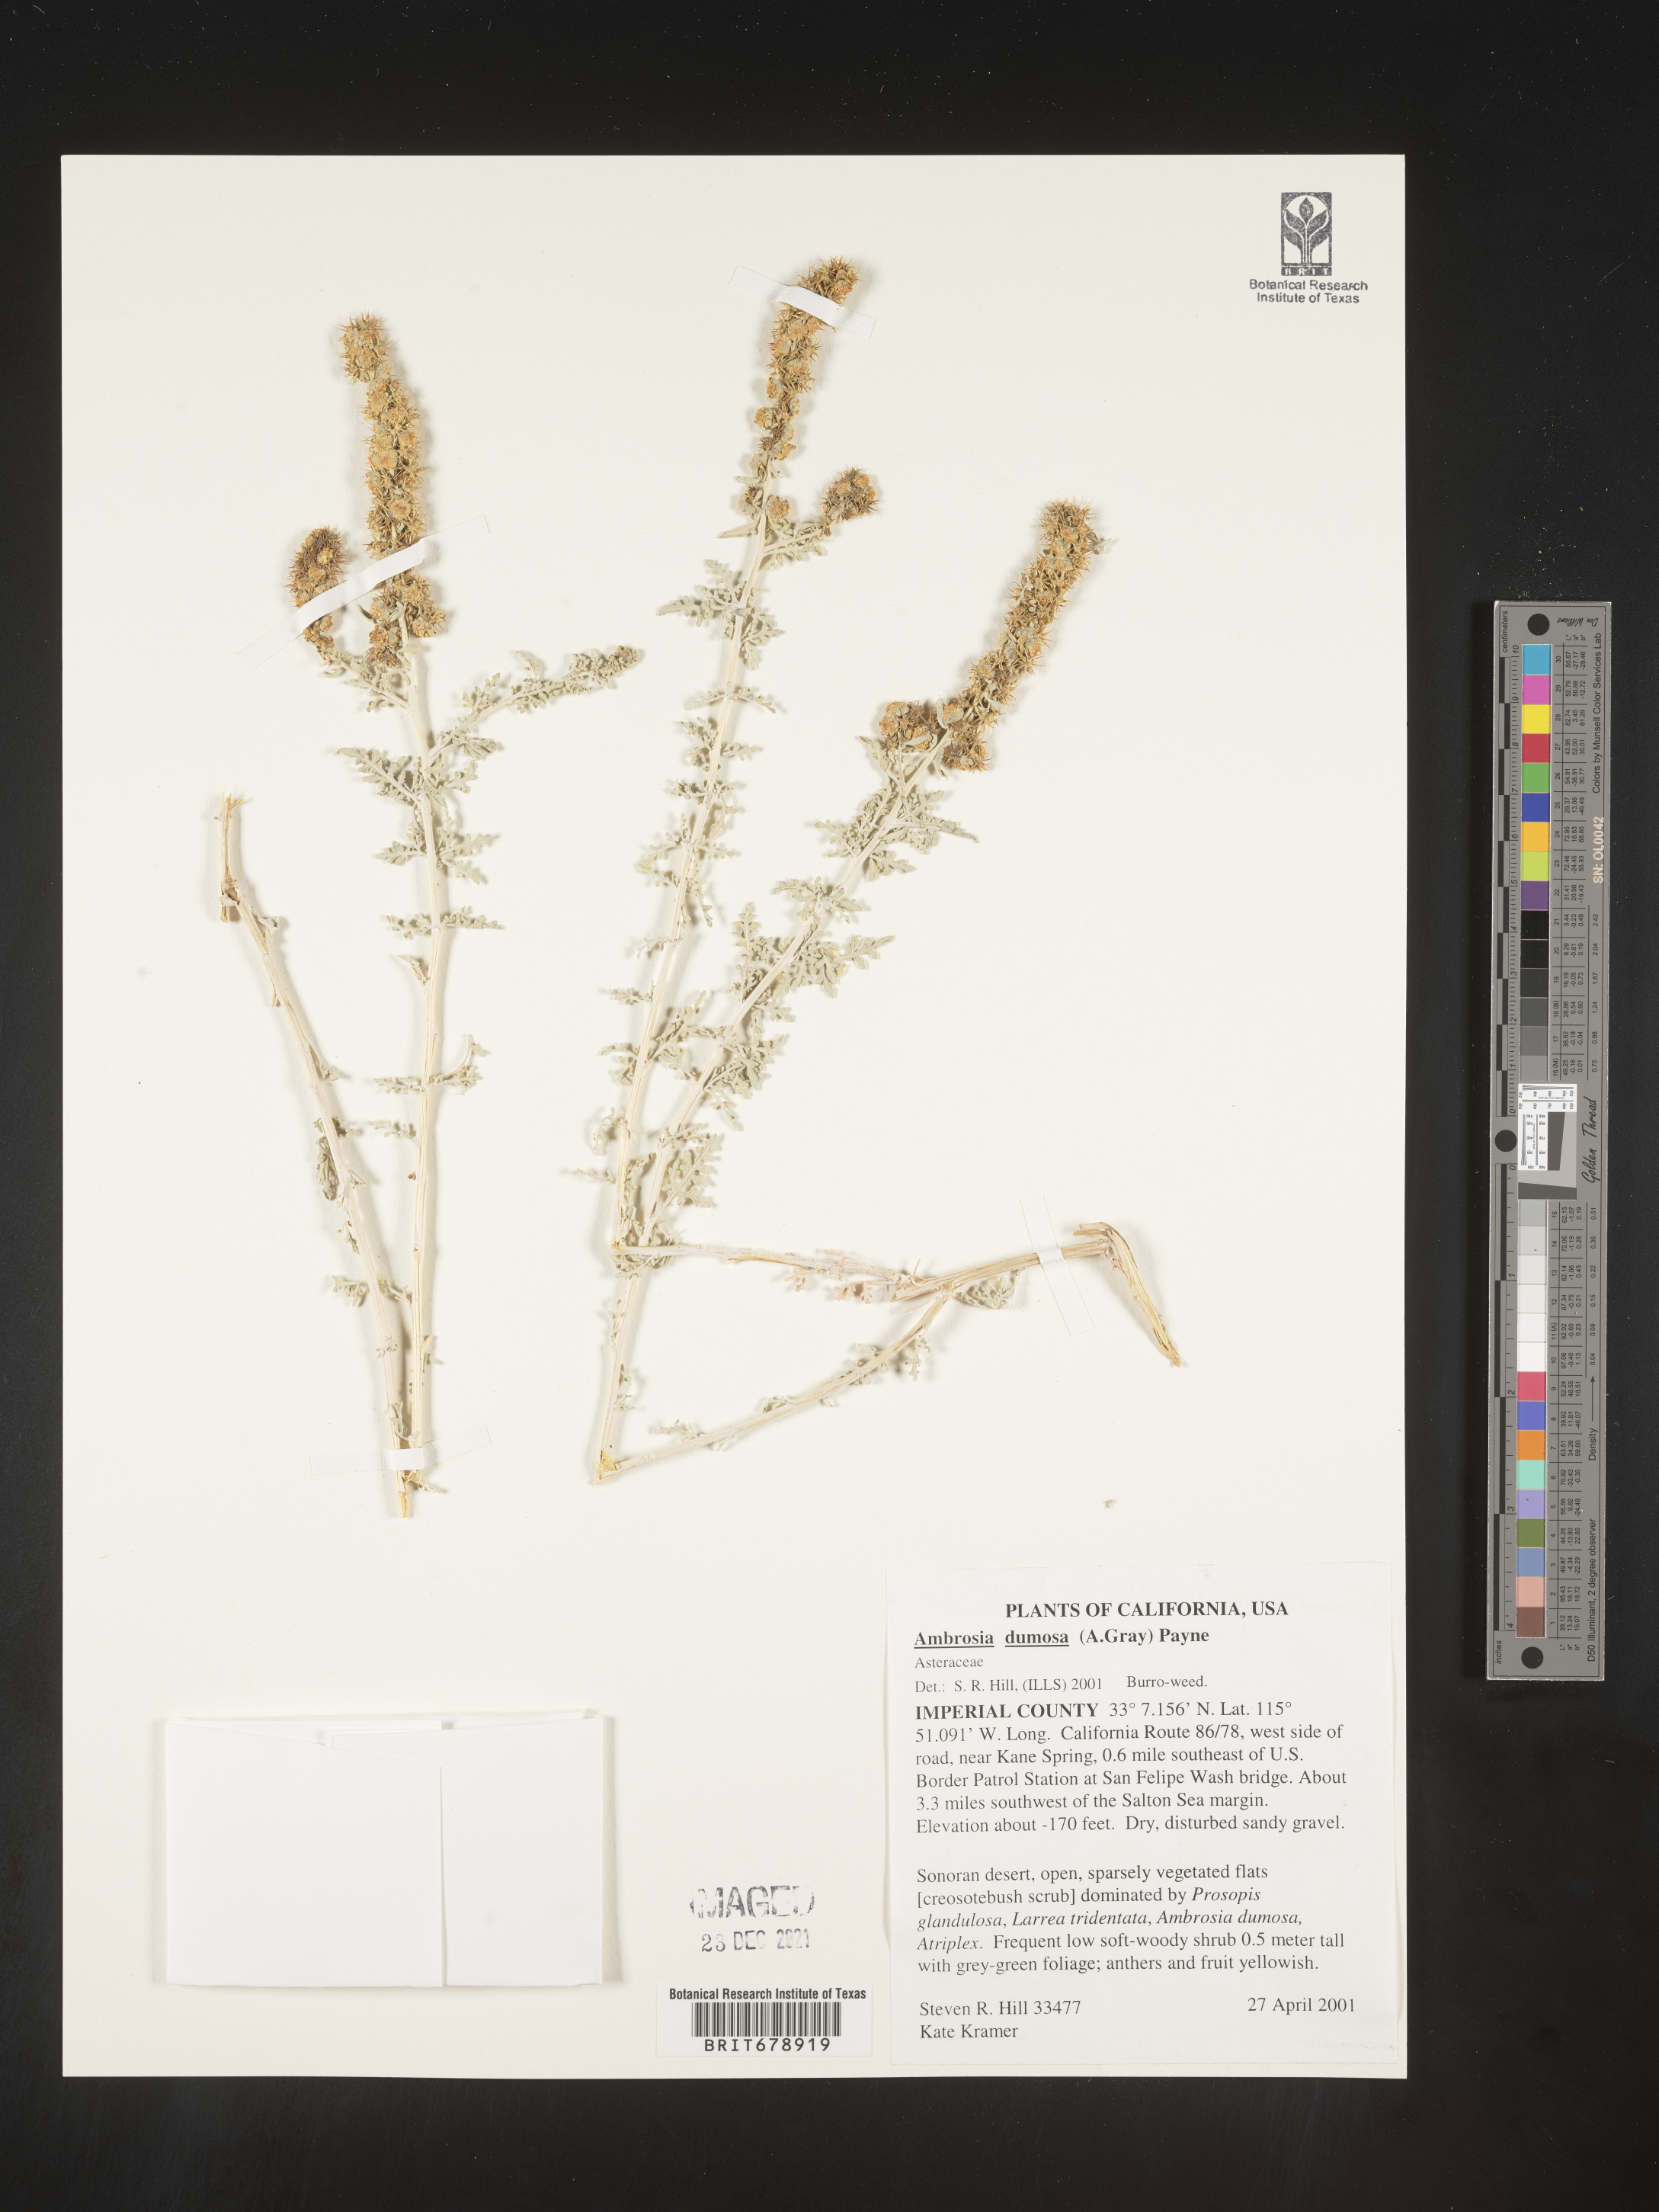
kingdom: Plantae
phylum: Tracheophyta
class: Magnoliopsida
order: Asterales
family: Asteraceae
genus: Ambrosia
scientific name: Ambrosia dumosa
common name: Bur-sage
